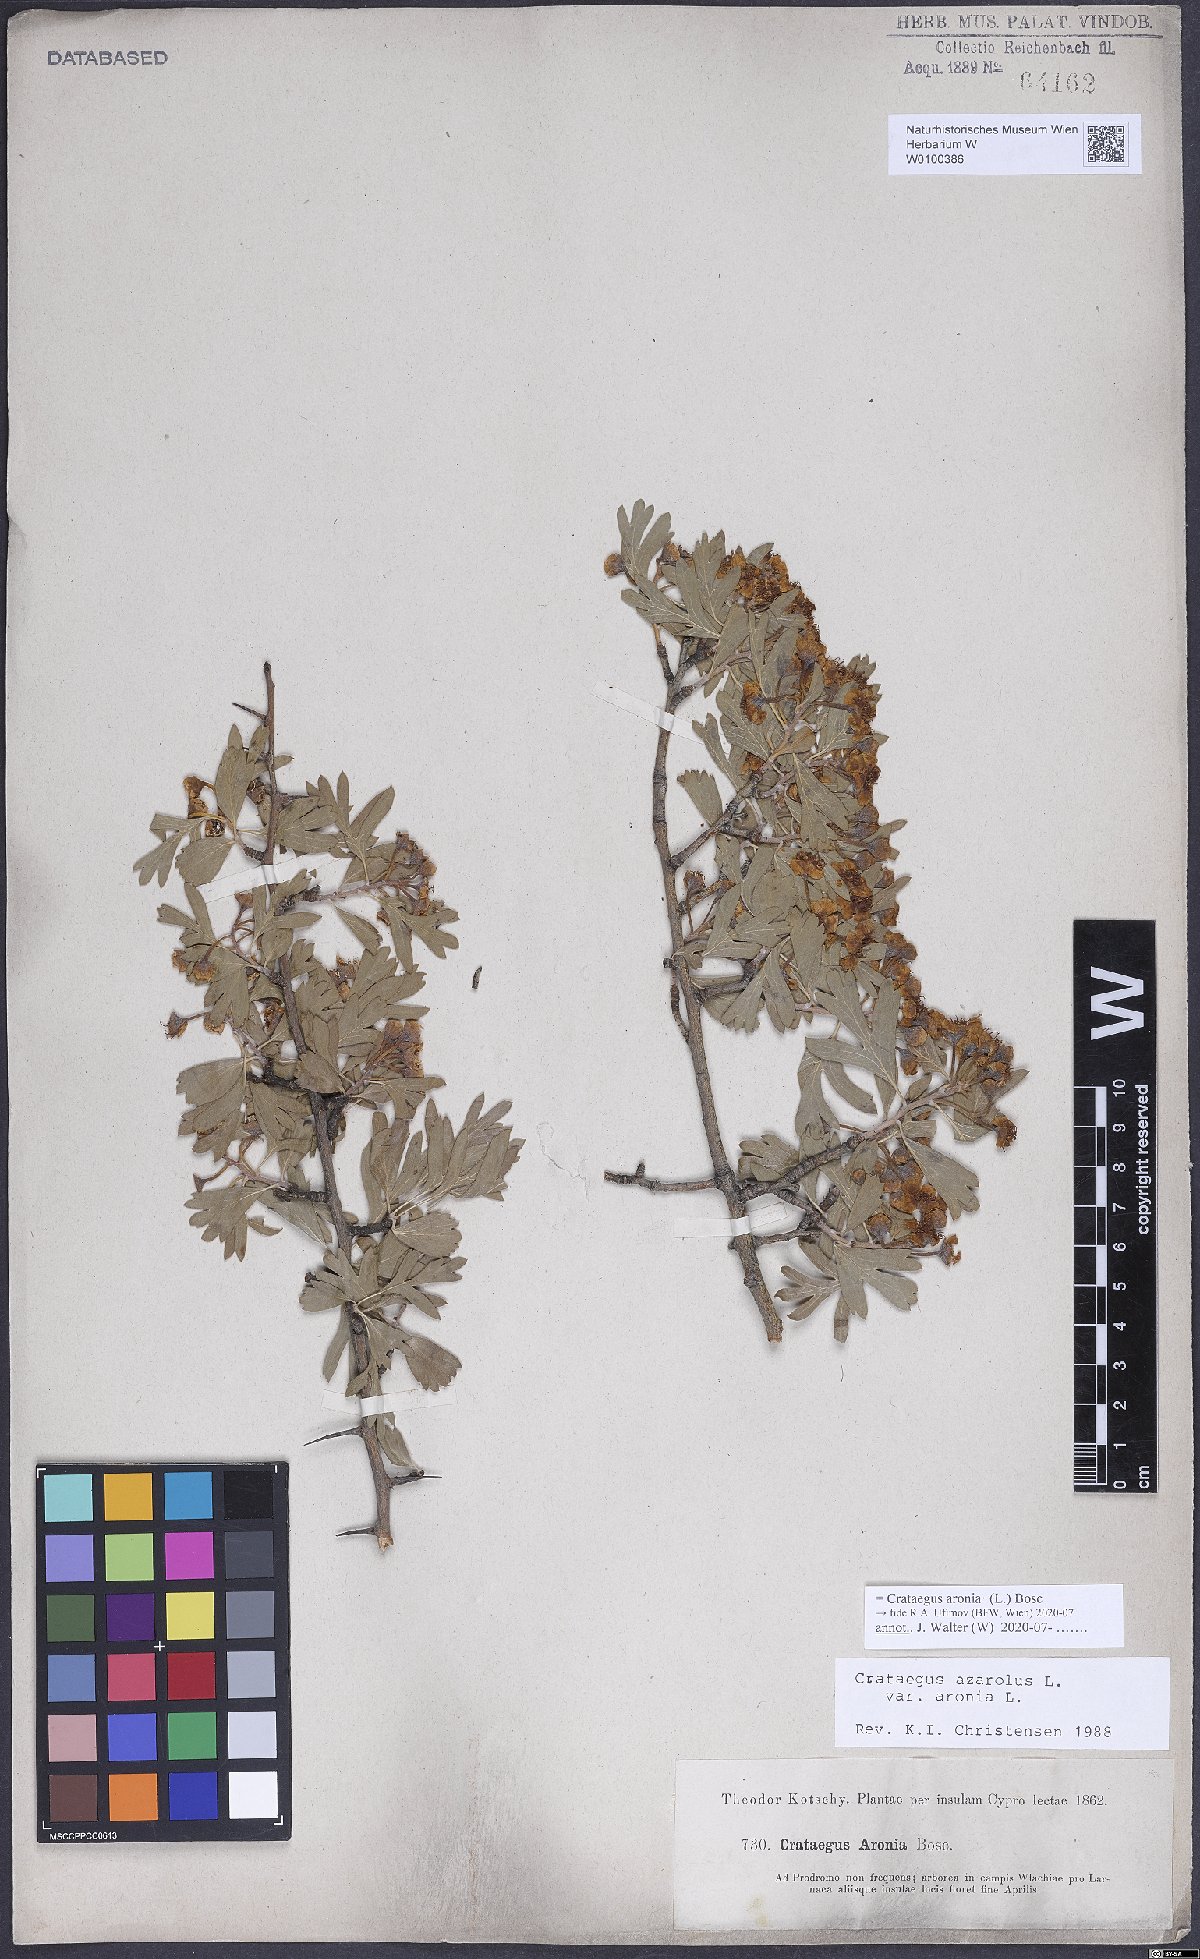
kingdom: Plantae
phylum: Tracheophyta
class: Magnoliopsida
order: Rosales
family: Rosaceae
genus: Crataegus
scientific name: Crataegus azarolus
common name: Azarole
